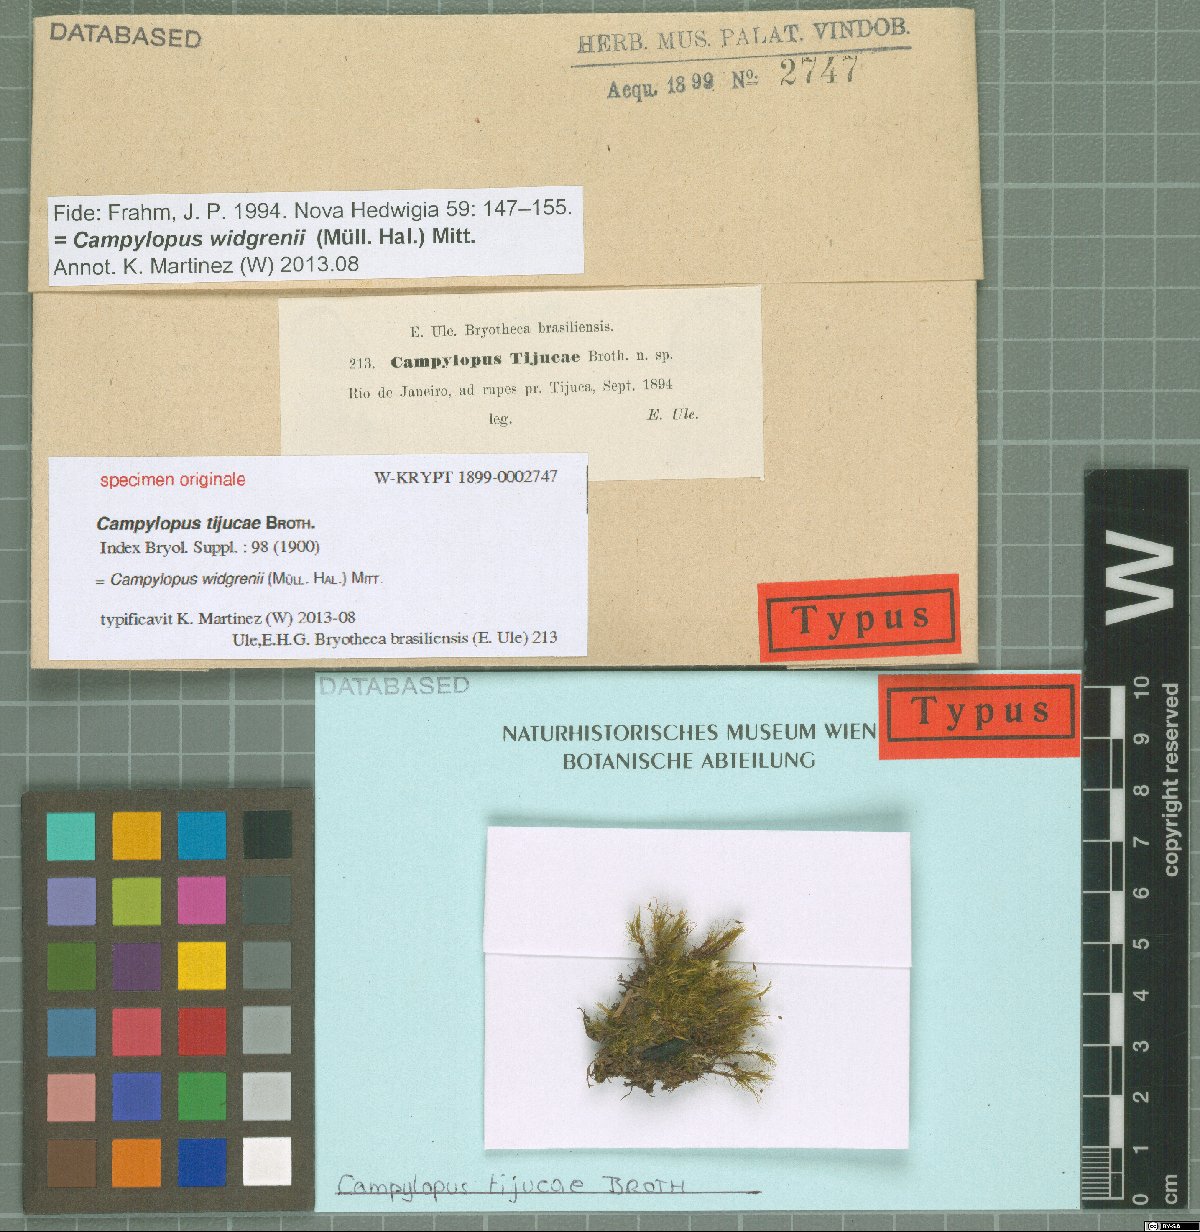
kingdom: Protozoa
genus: Campylopus
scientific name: Campylopus
